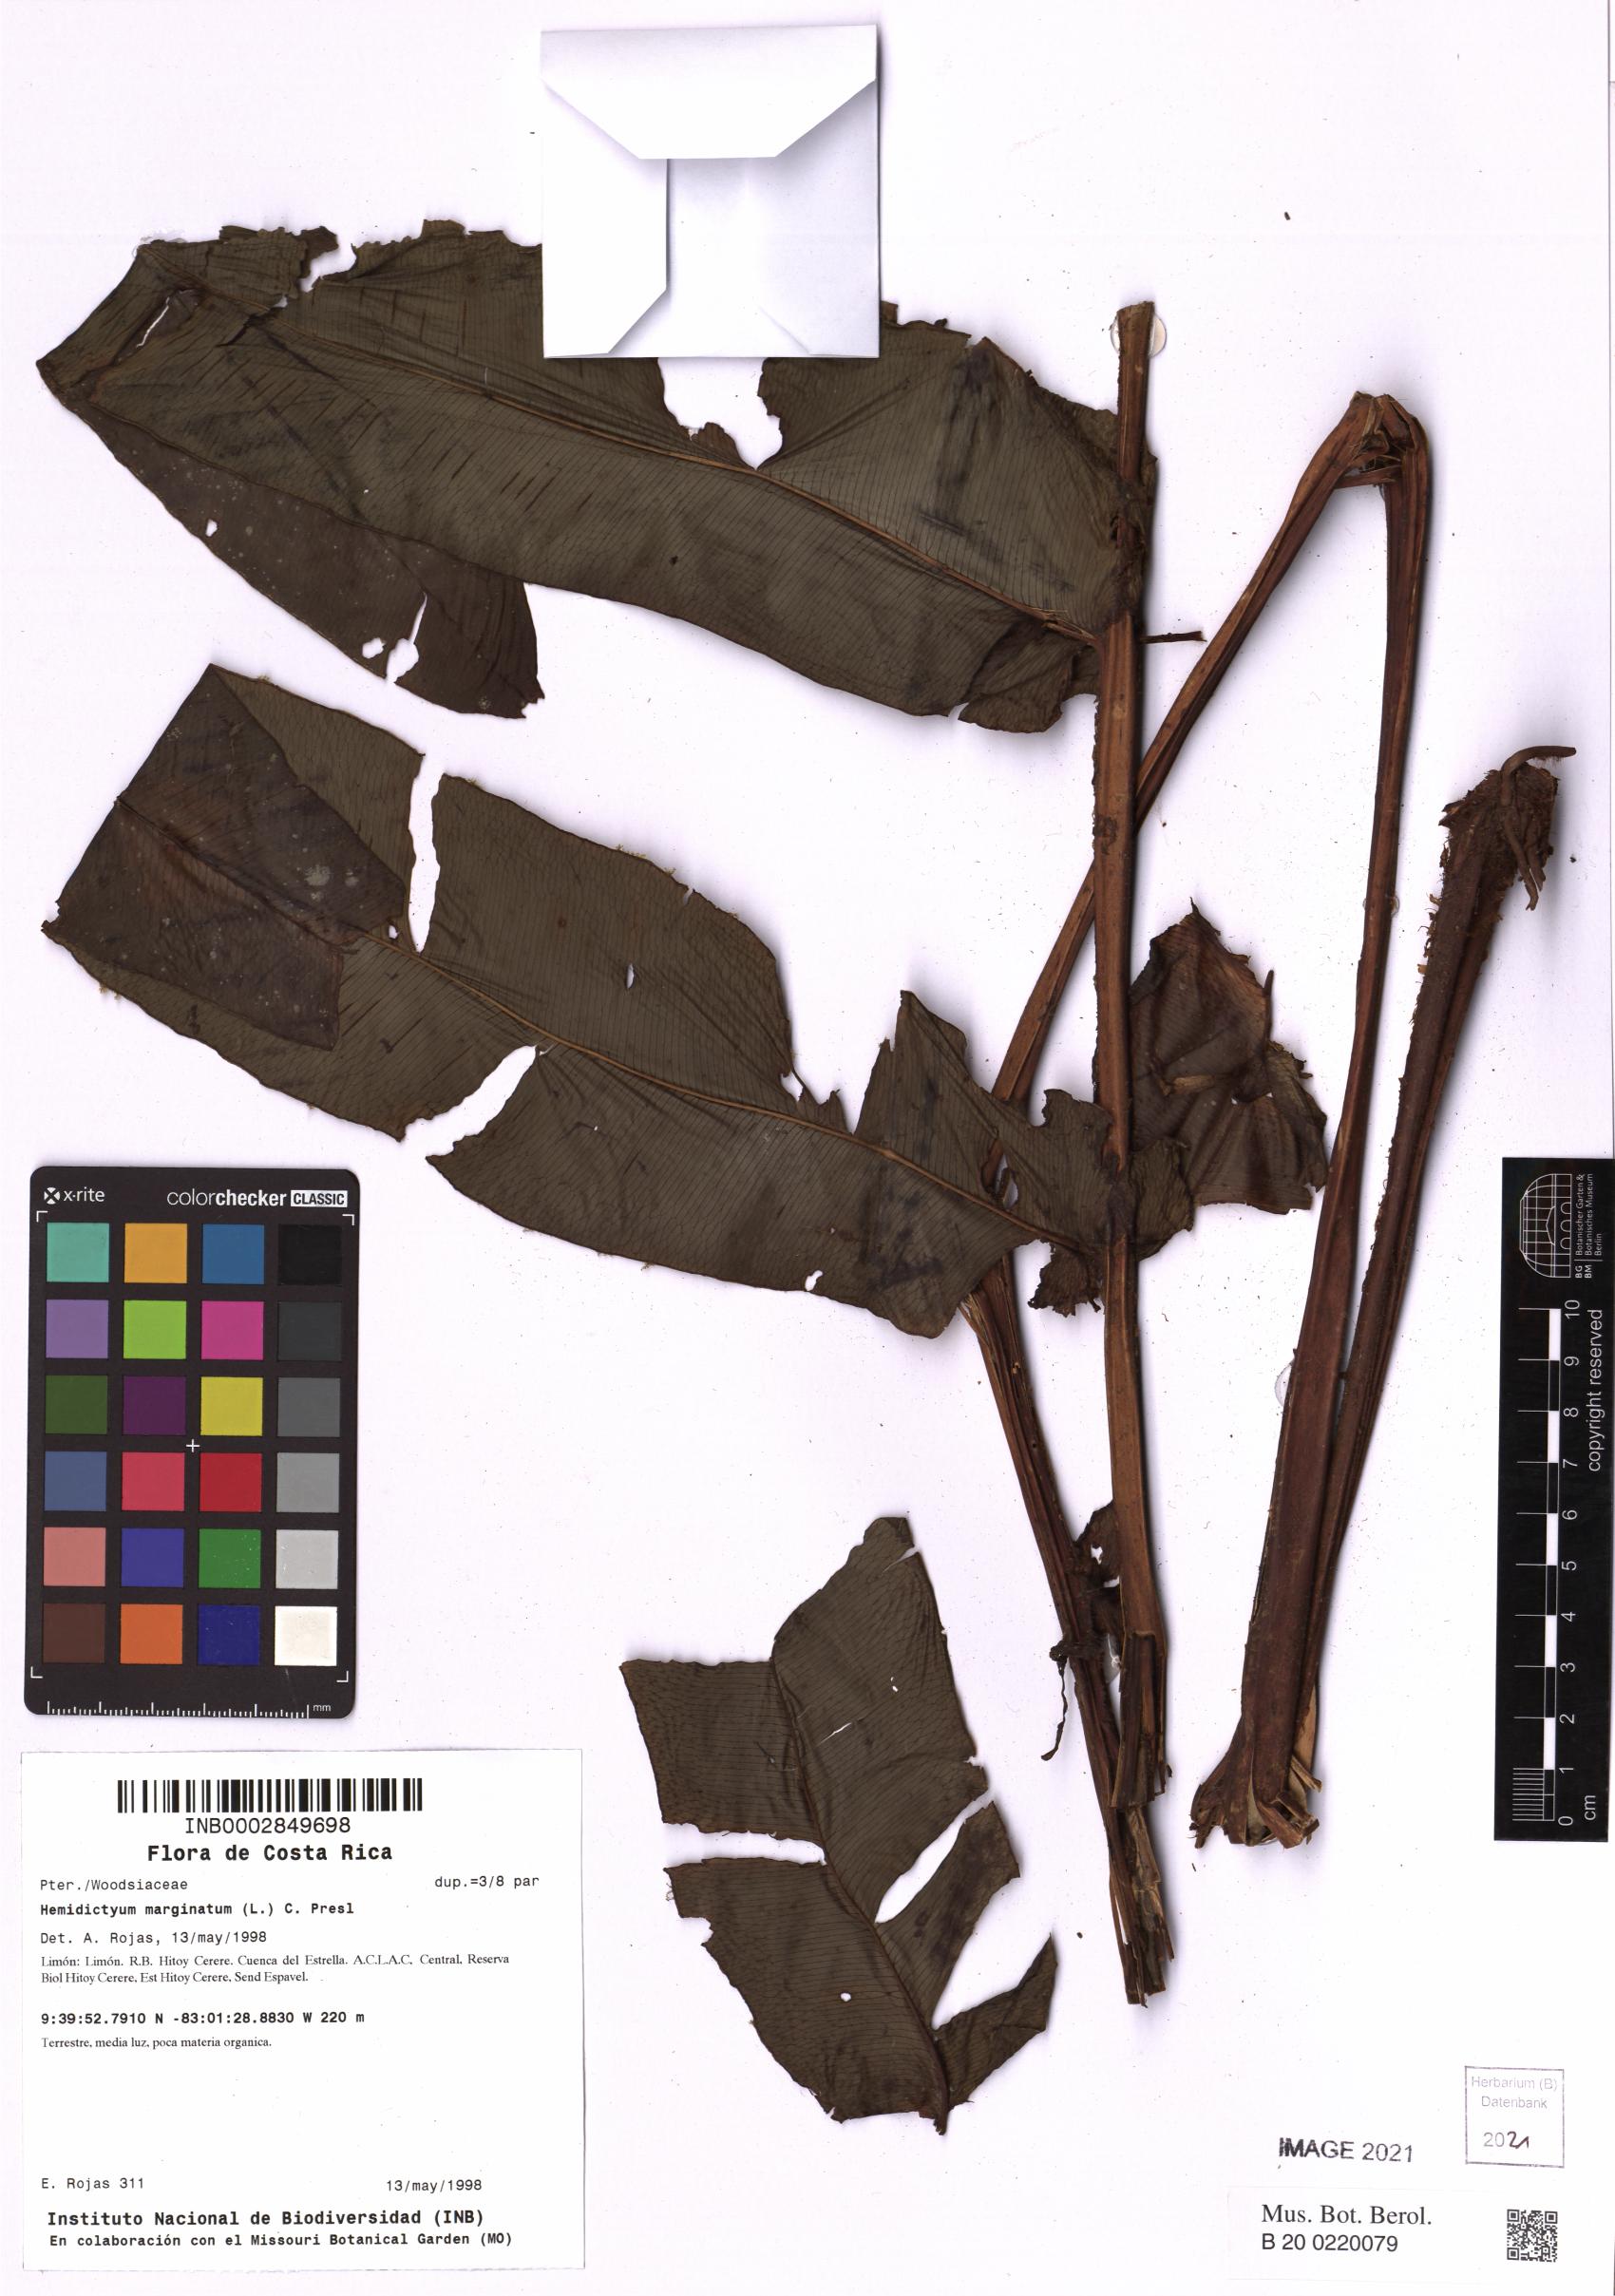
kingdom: Plantae
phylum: Tracheophyta
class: Polypodiopsida
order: Polypodiales
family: Hemidictyaceae
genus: Hemidictyum
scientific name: Hemidictyum marginatum
